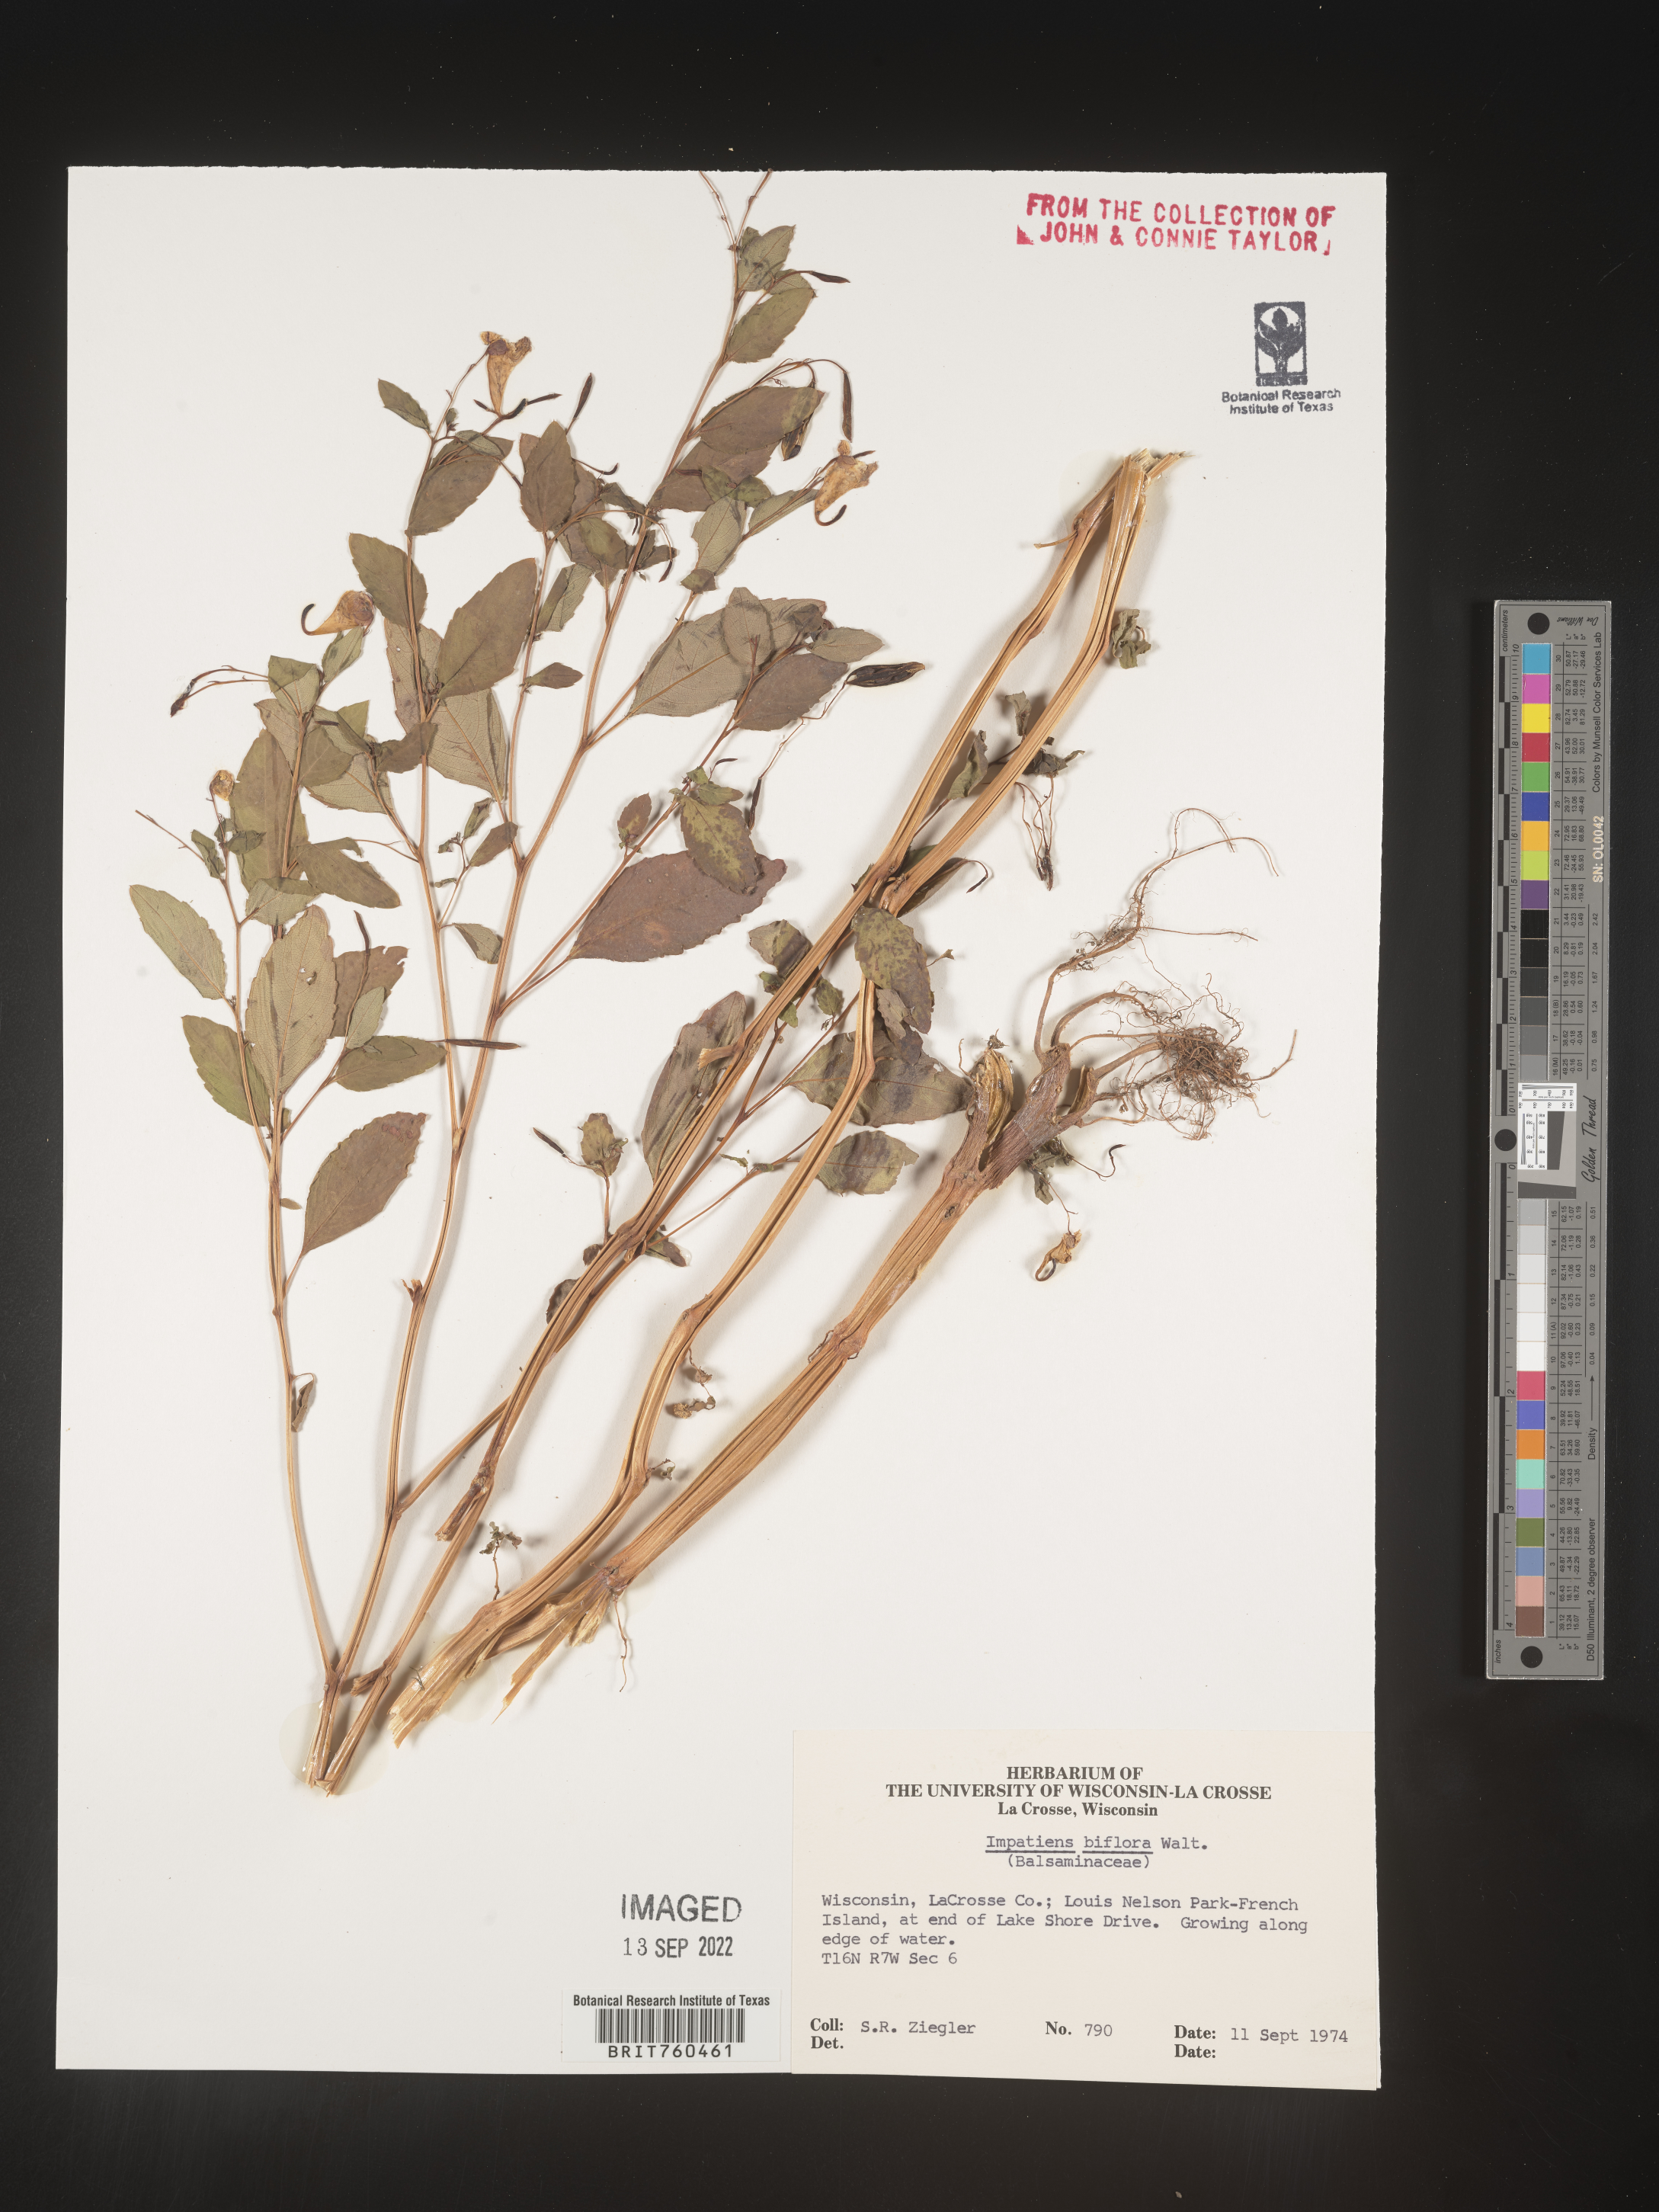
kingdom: Plantae
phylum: Tracheophyta
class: Magnoliopsida
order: Ericales
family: Balsaminaceae
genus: Impatiens
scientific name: Impatiens capensis
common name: Orange balsam
